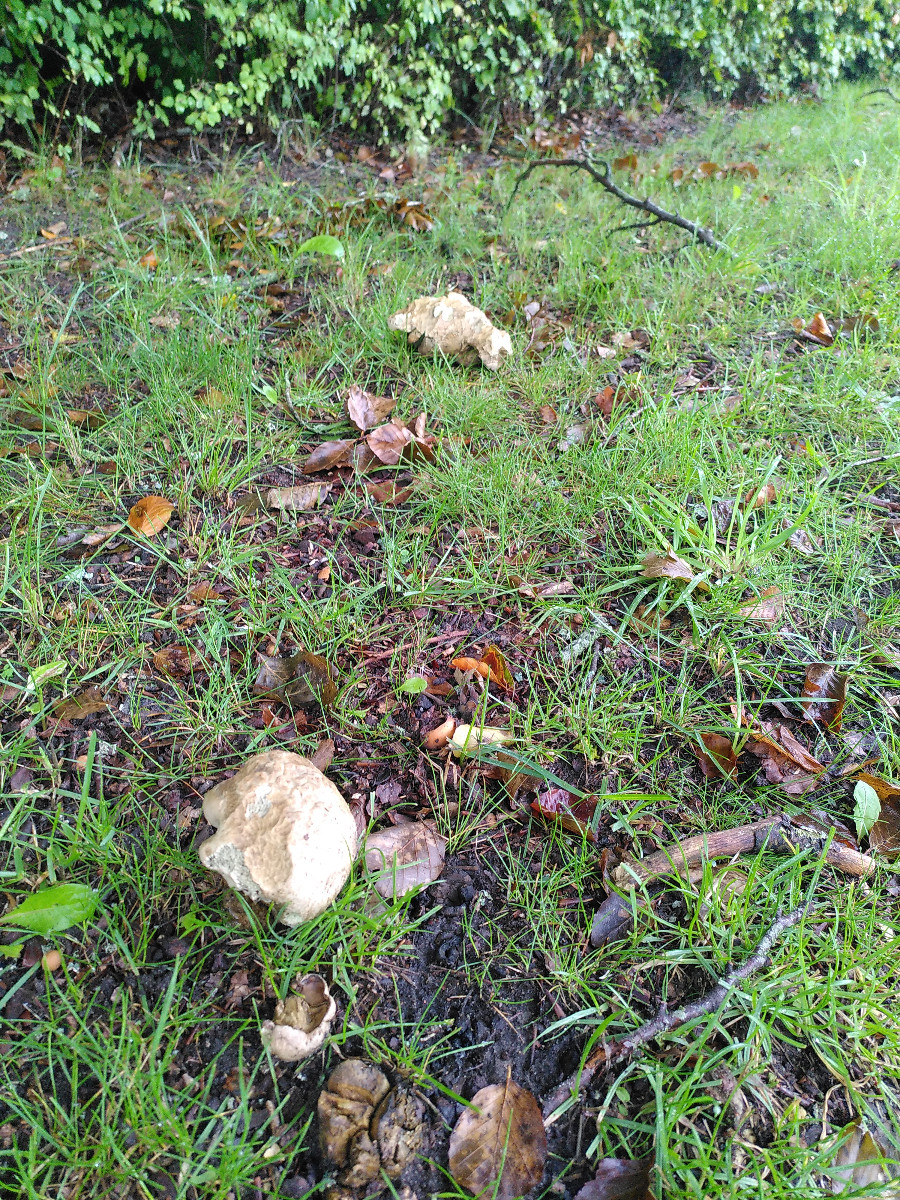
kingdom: Fungi
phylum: Basidiomycota
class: Agaricomycetes
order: Boletales
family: Boletaceae
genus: Caloboletus
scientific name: Caloboletus radicans
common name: rod-rørhat
